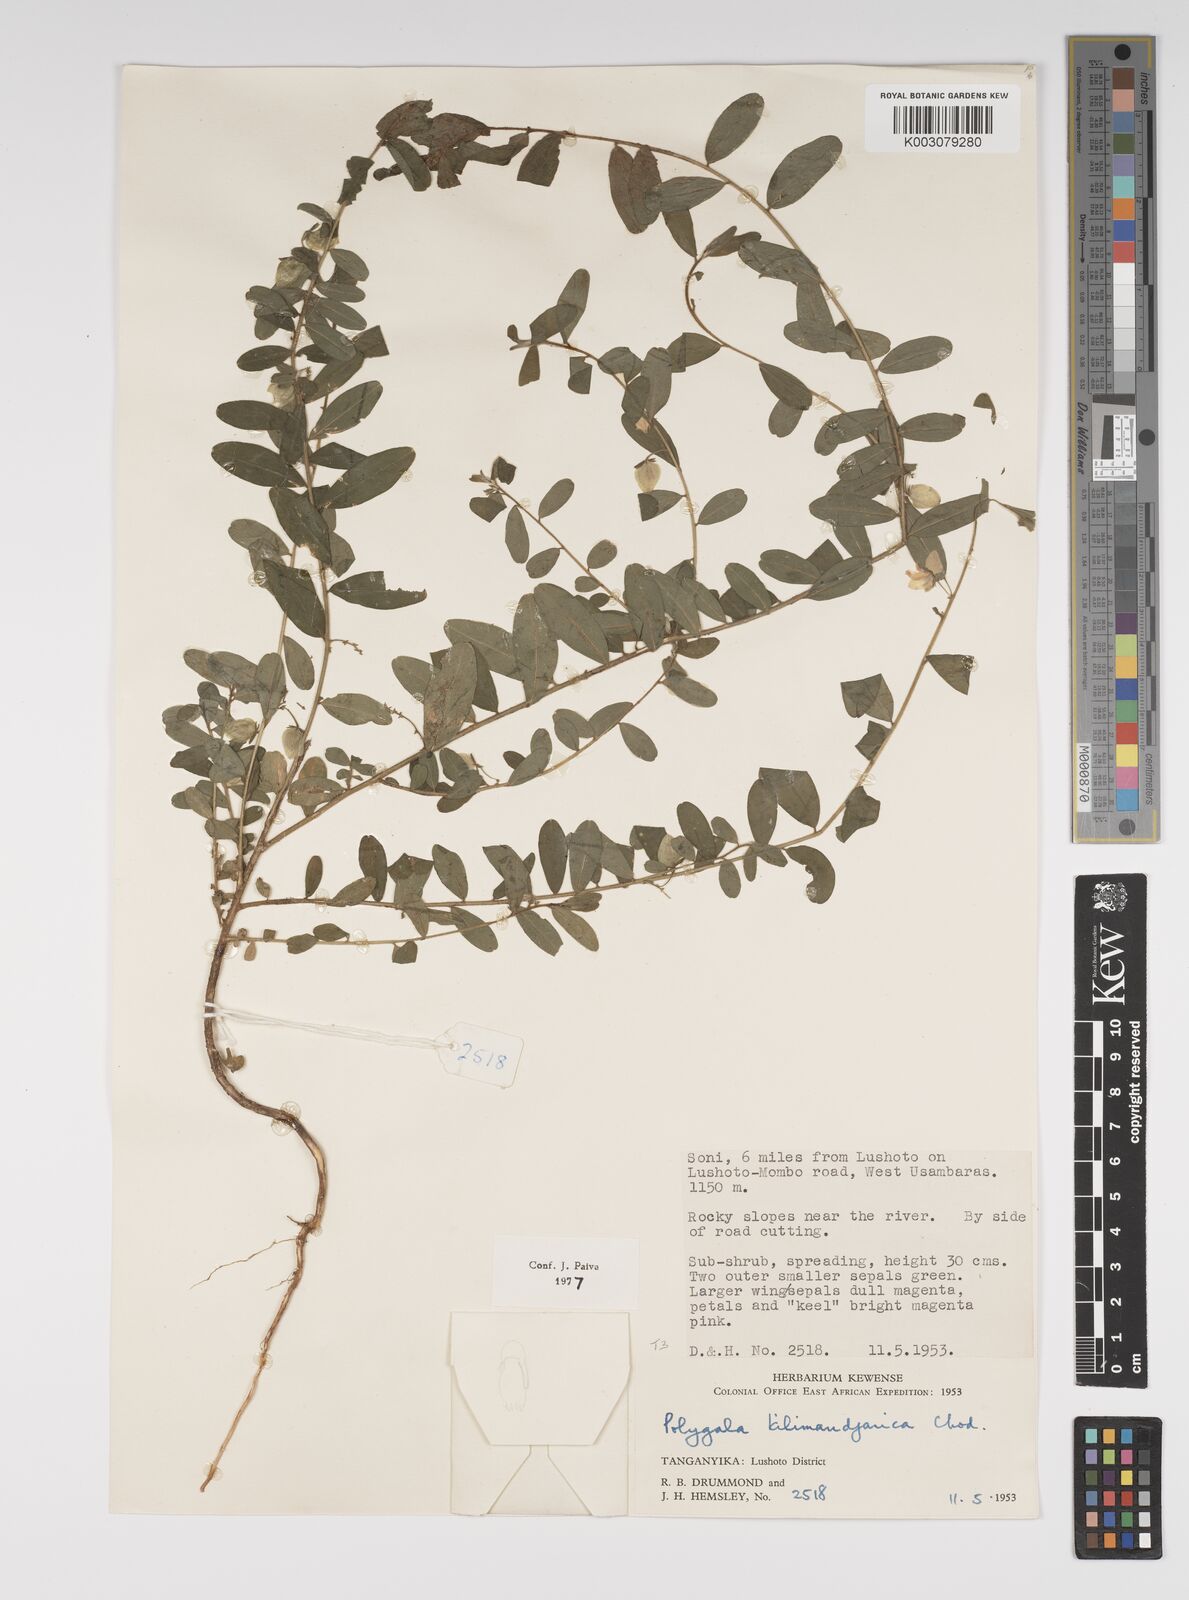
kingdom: Plantae
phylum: Tracheophyta
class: Magnoliopsida
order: Fabales
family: Polygalaceae
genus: Polygala
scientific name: Polygala kilimandjarica
